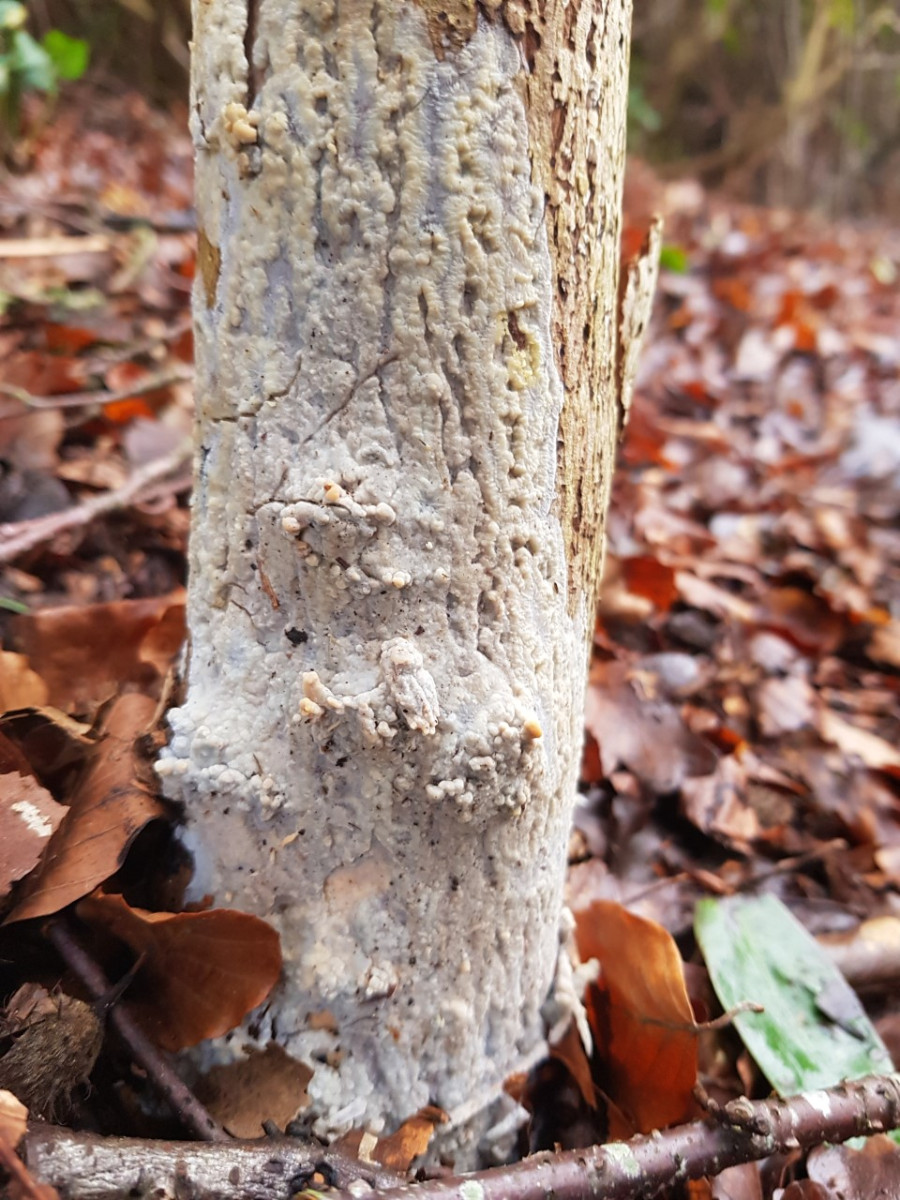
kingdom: Fungi
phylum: Basidiomycota
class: Agaricomycetes
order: Agaricales
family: Radulomycetaceae
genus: Radulomyces
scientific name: Radulomyces confluens
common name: glat naftalinskind
